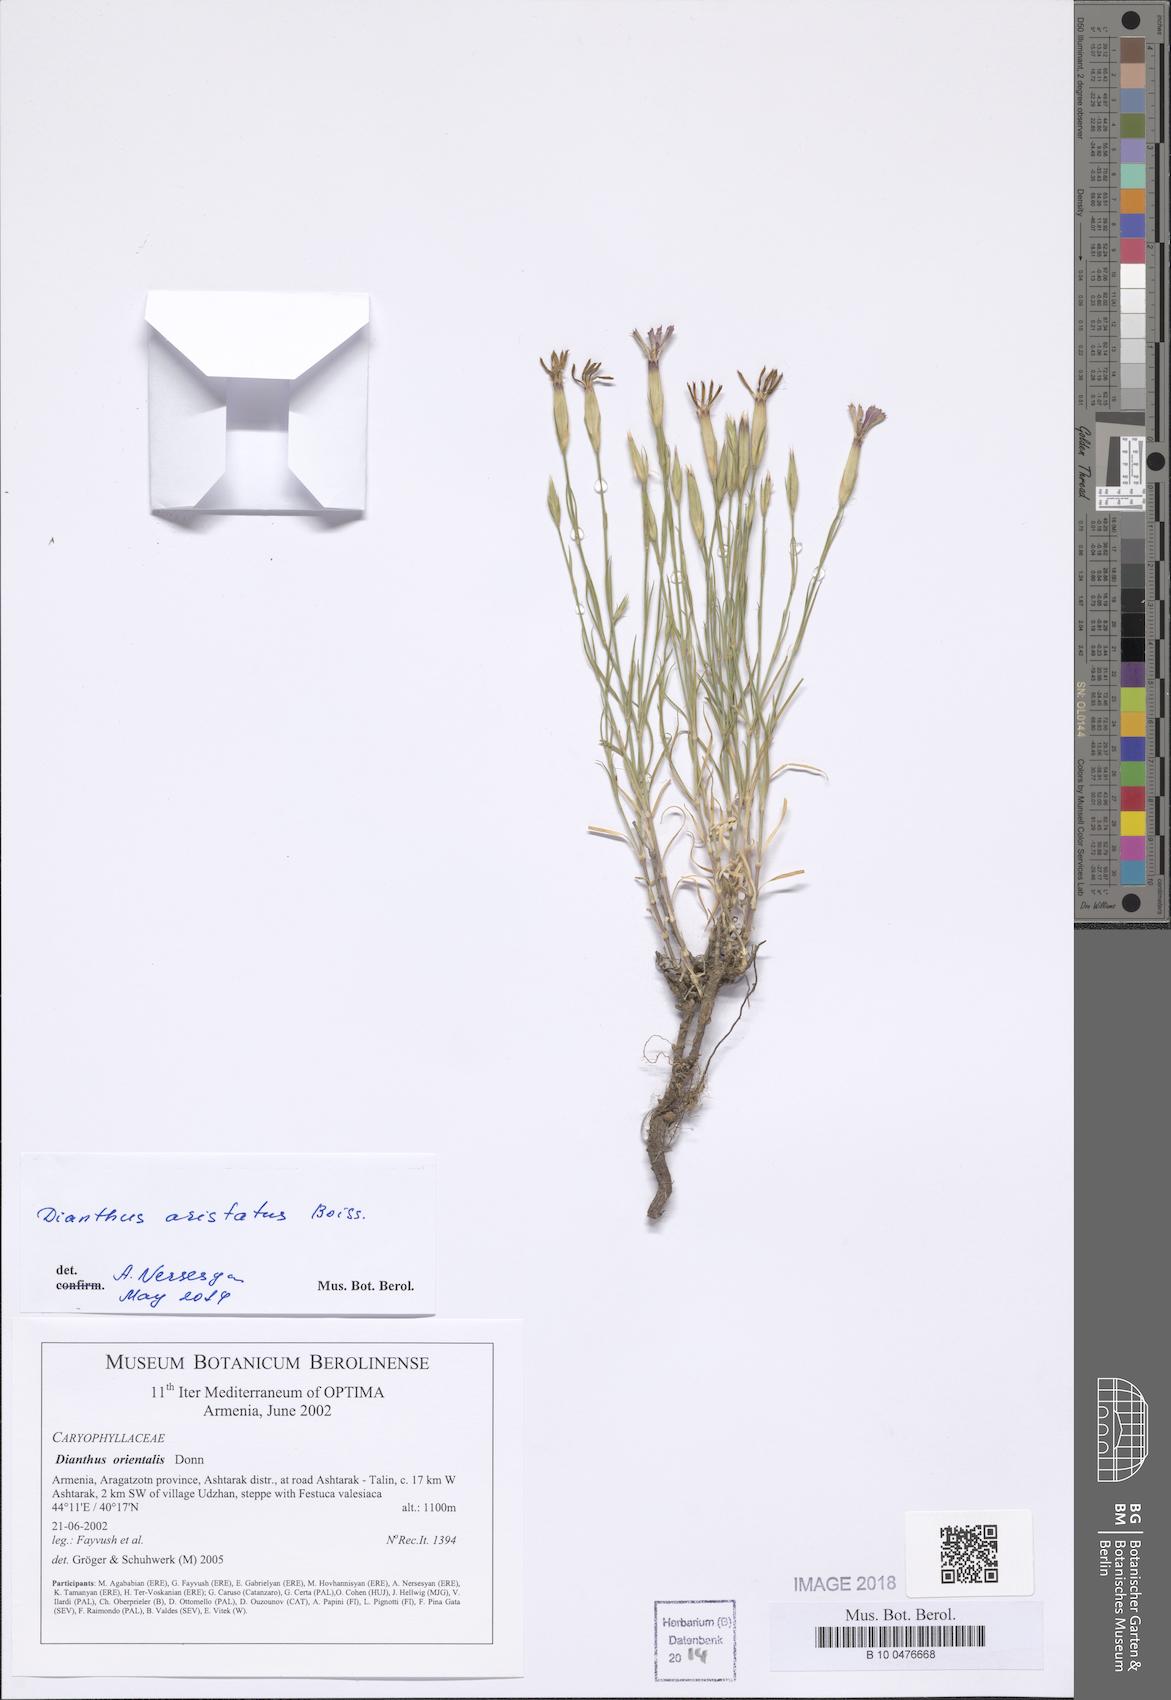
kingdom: Plantae
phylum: Tracheophyta
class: Magnoliopsida
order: Caryophyllales
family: Caryophyllaceae
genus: Dianthus
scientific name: Dianthus orientalis
